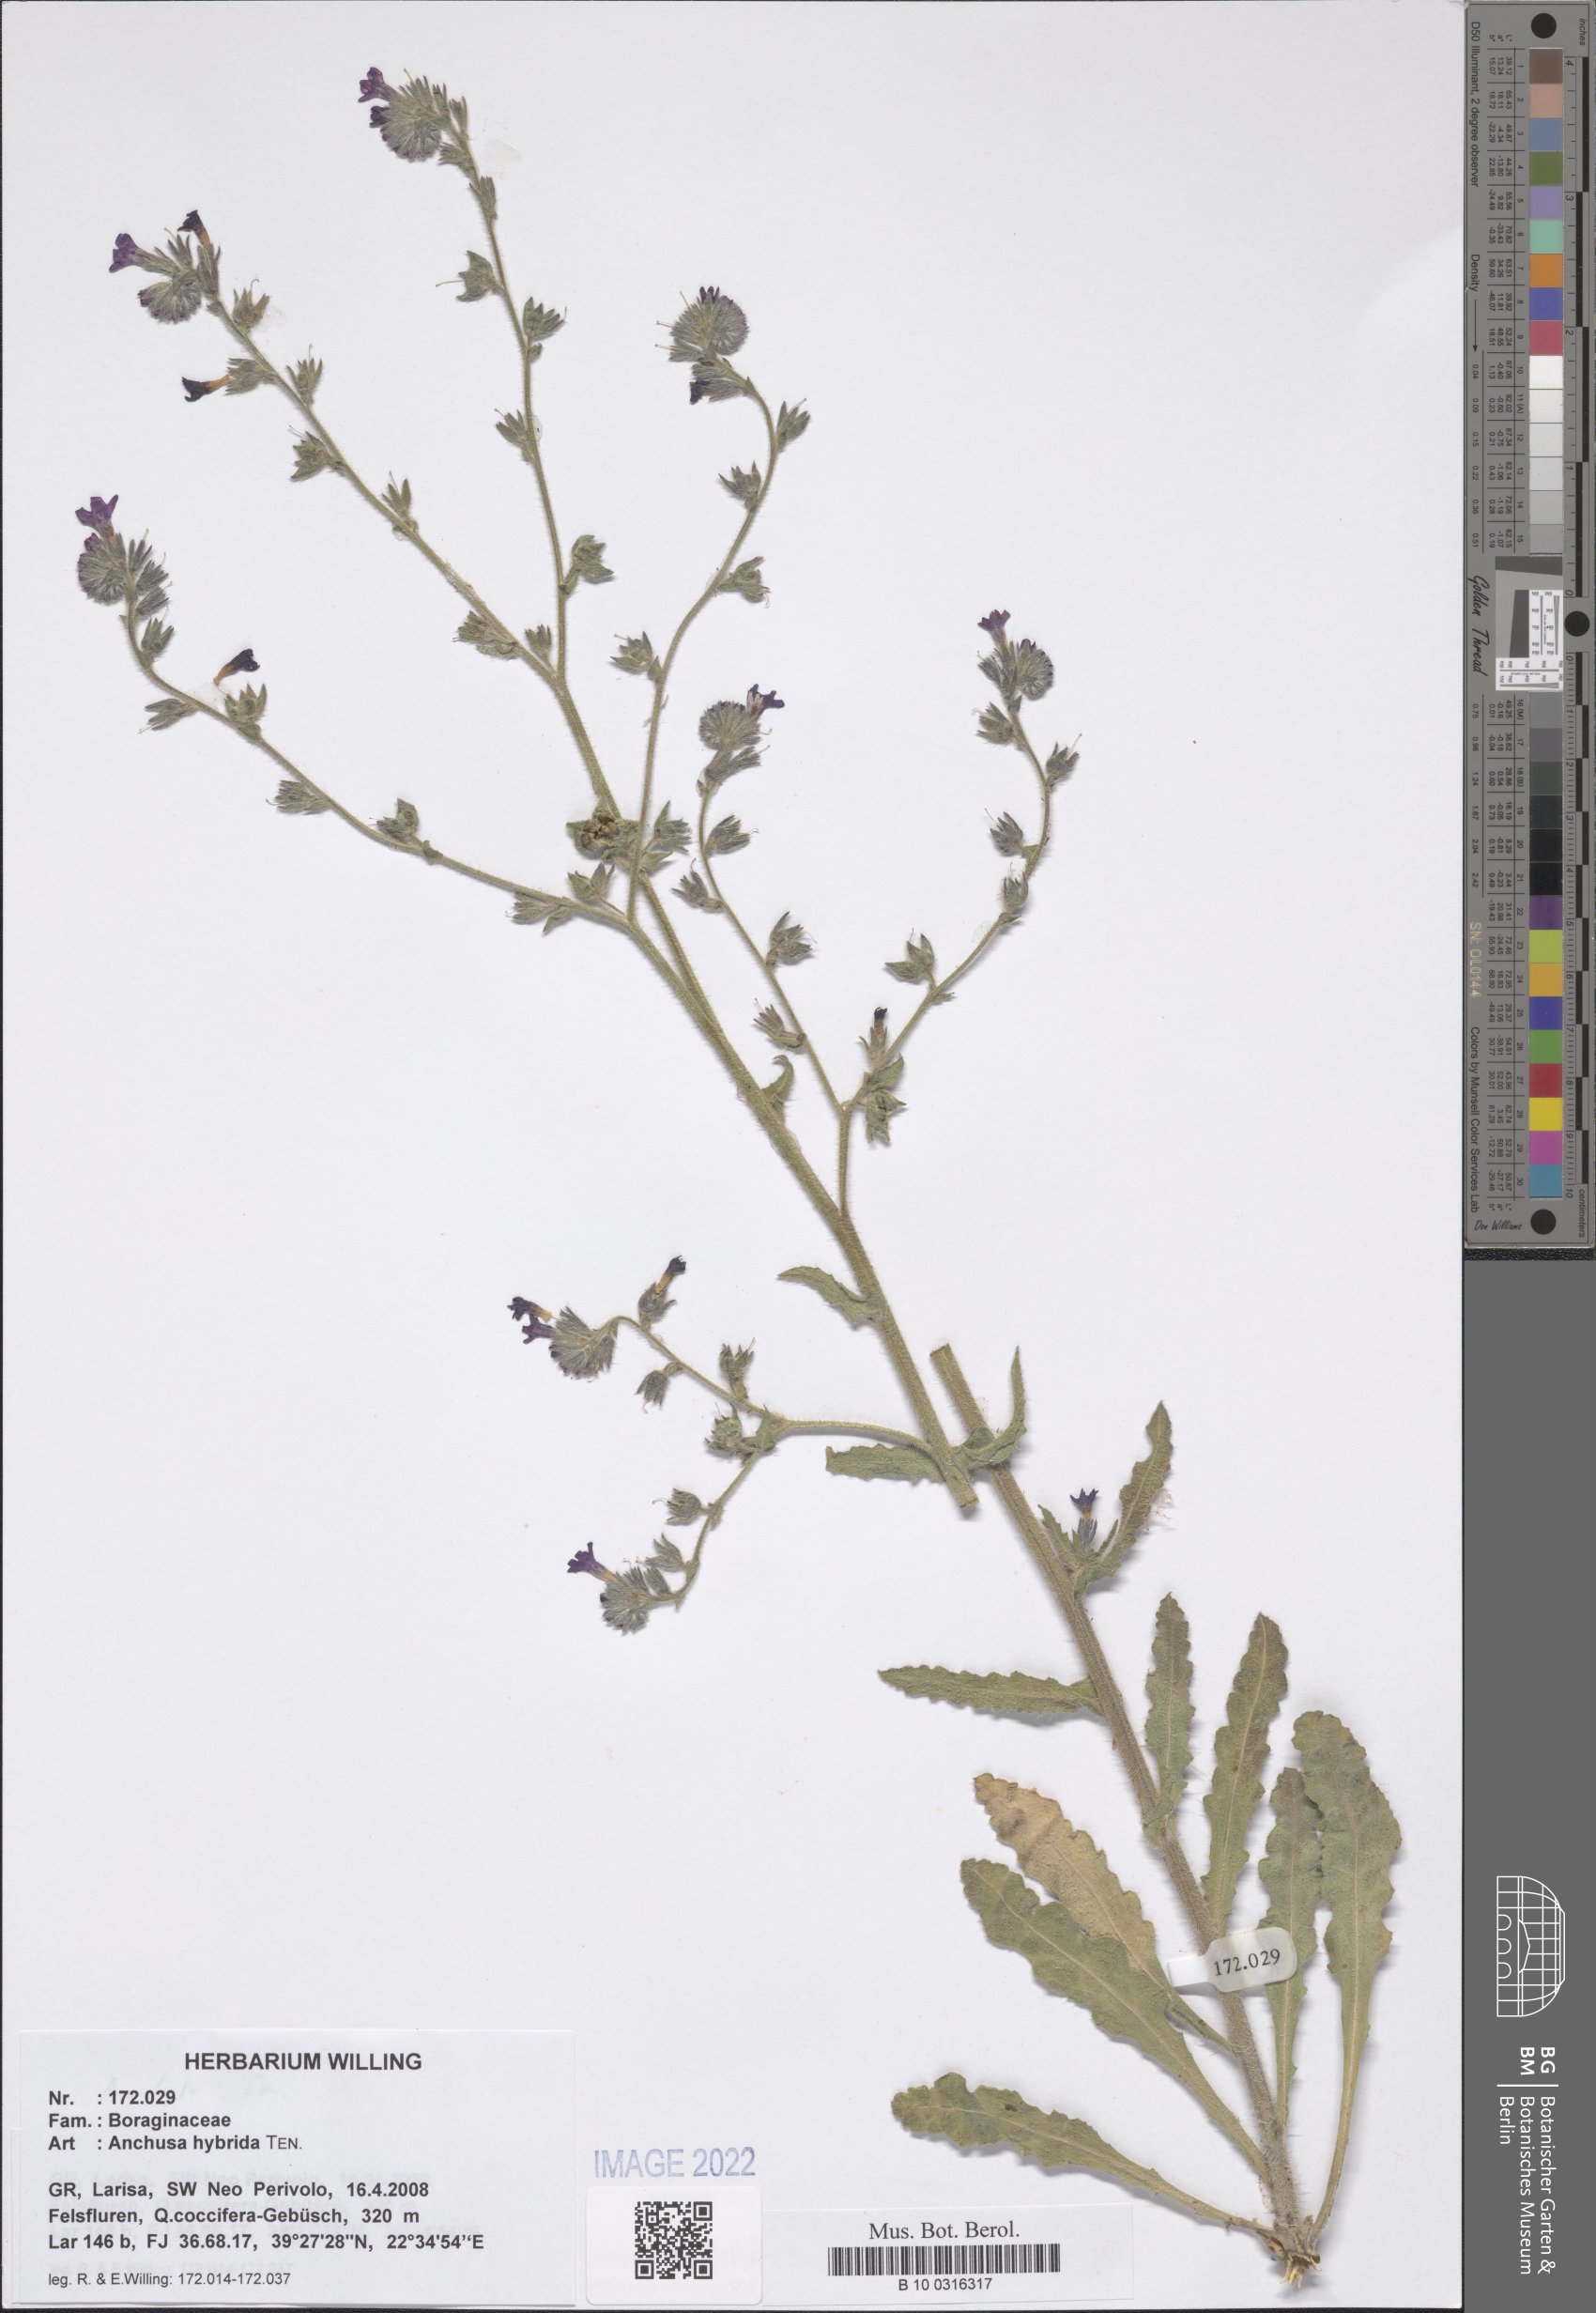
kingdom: Plantae
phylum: Tracheophyta
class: Magnoliopsida
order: Boraginales
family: Boraginaceae
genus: Anchusa
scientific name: Anchusa hybrida
